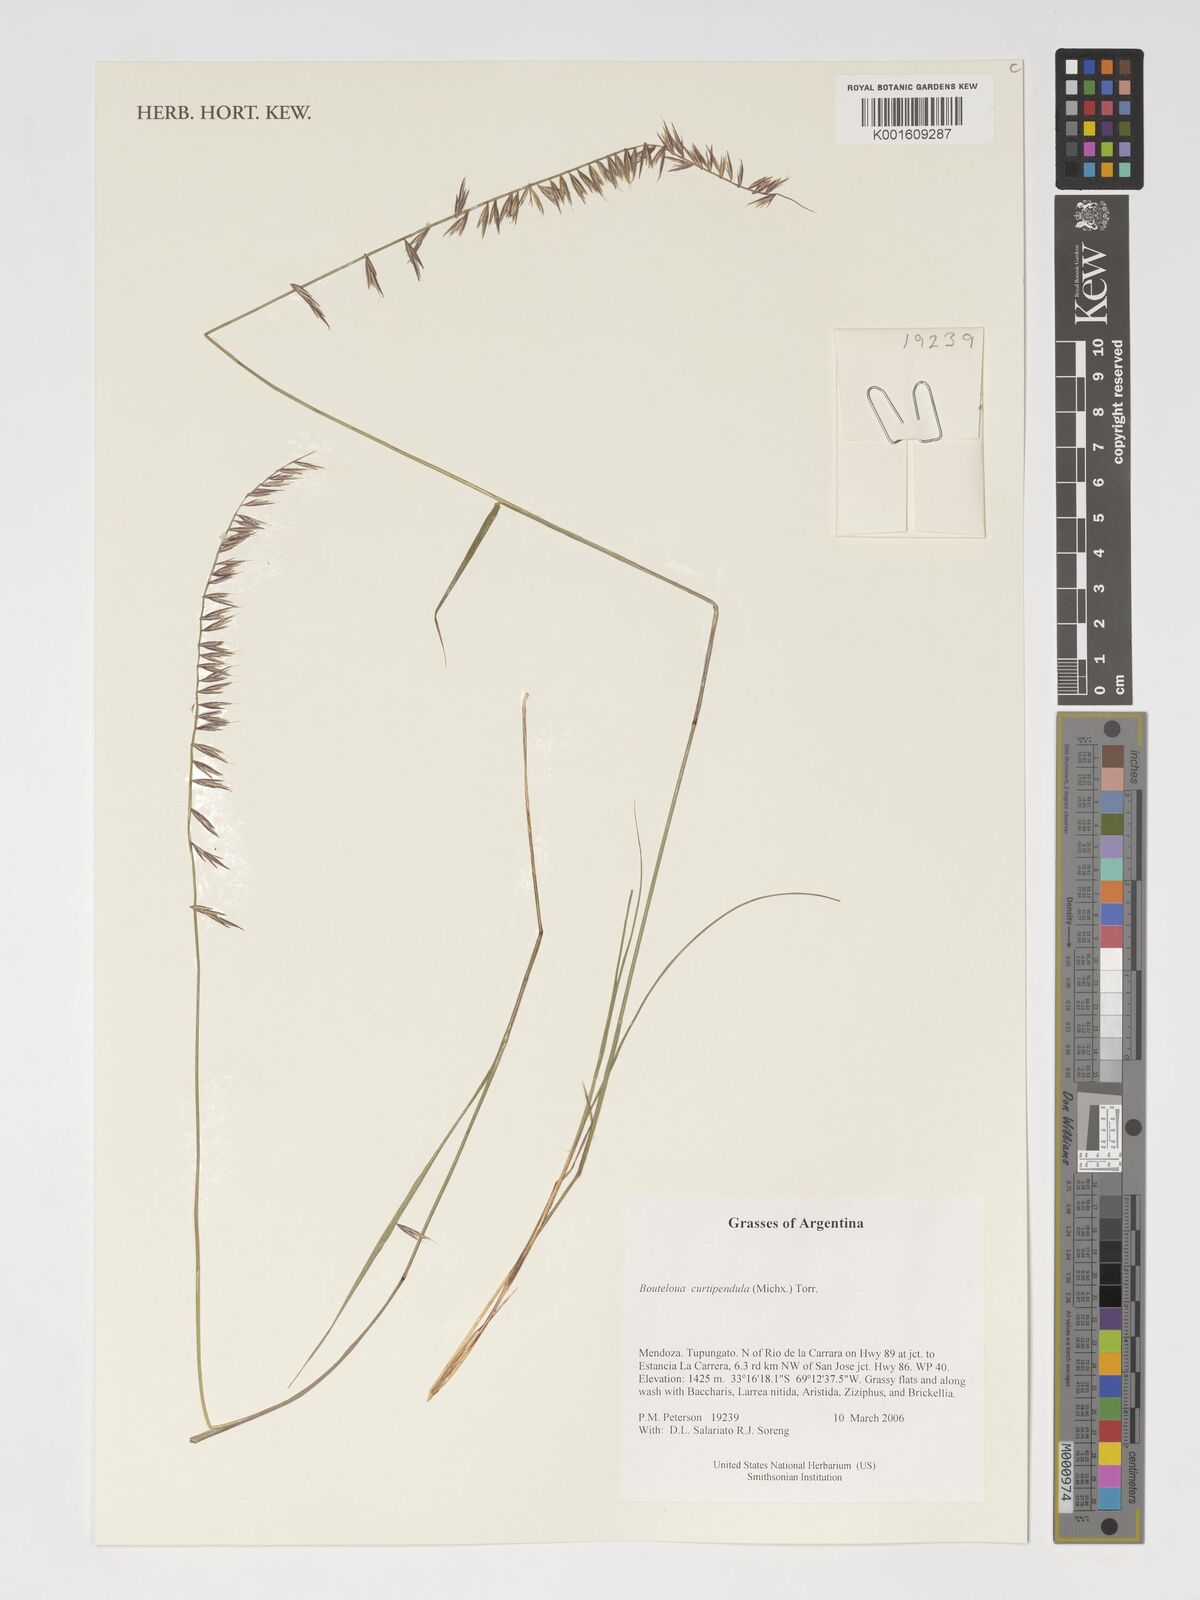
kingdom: Plantae
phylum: Tracheophyta
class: Liliopsida
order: Poales
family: Poaceae
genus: Bouteloua
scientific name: Bouteloua curtipendula
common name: Side-oats grama
